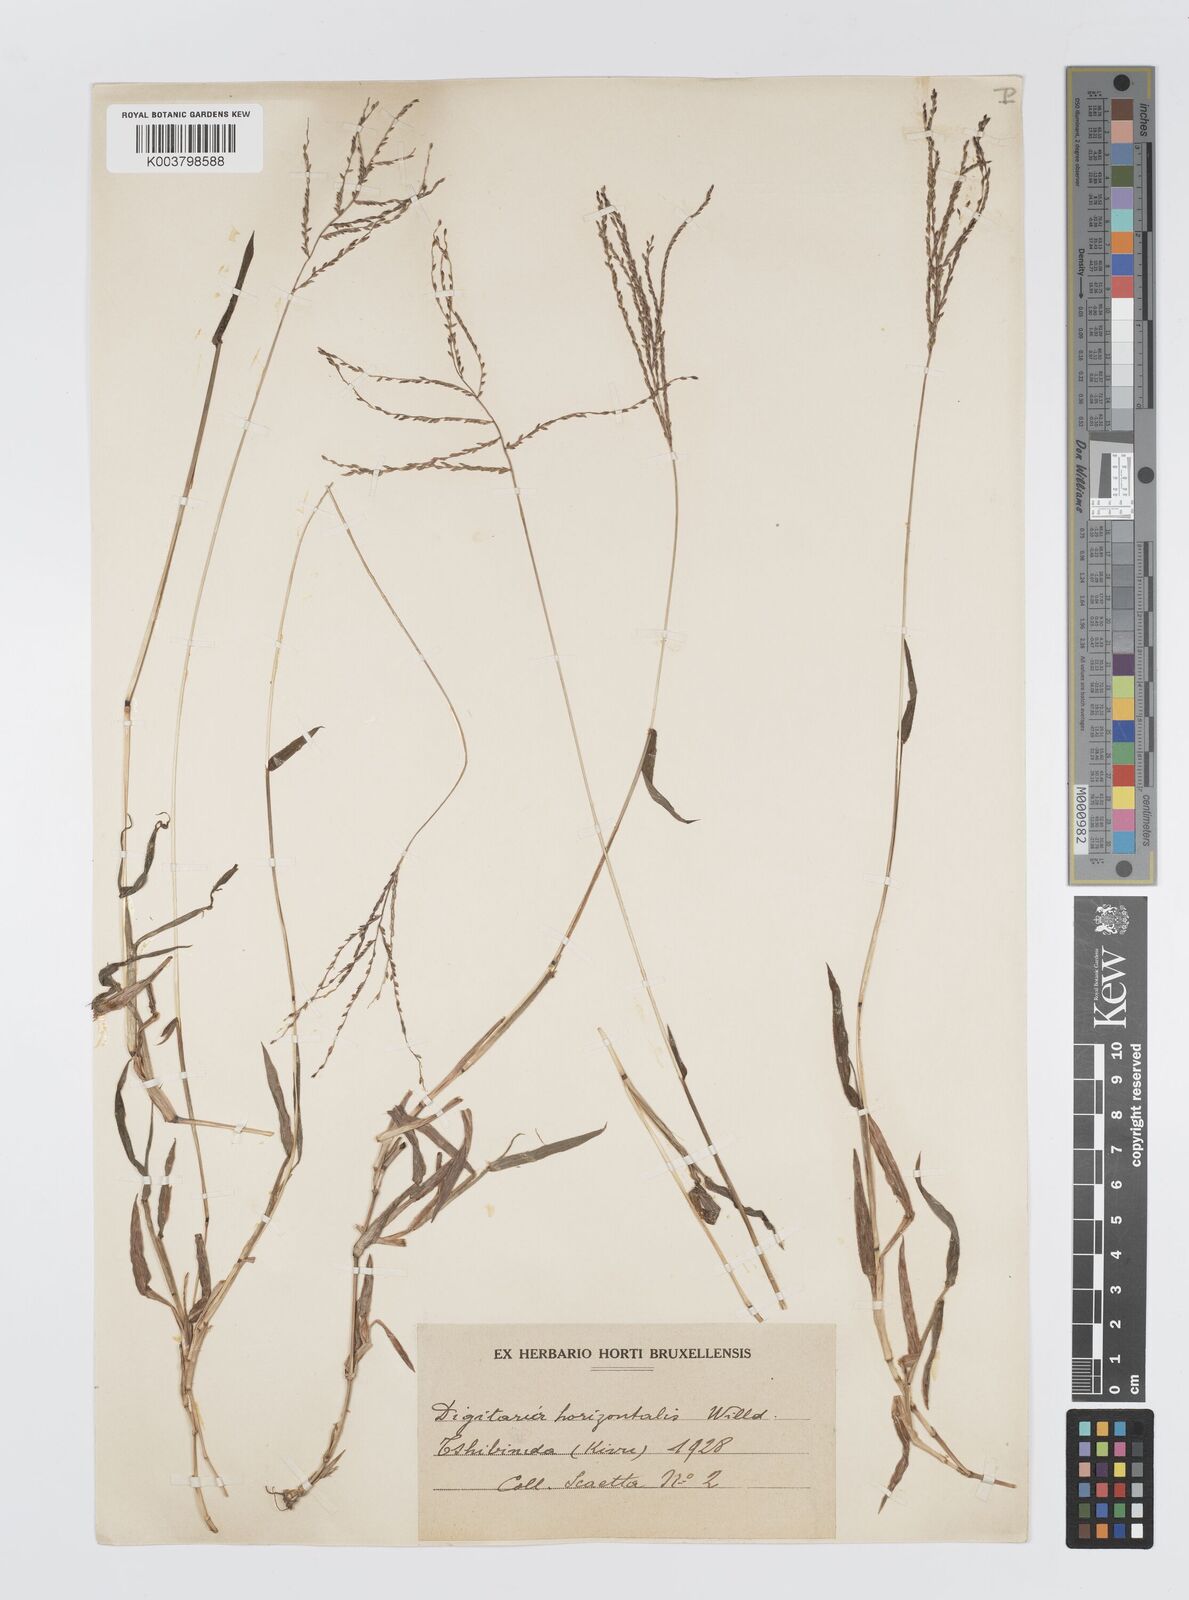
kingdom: Plantae
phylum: Tracheophyta
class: Liliopsida
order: Poales
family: Poaceae
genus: Digitaria
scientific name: Digitaria pearsonii
